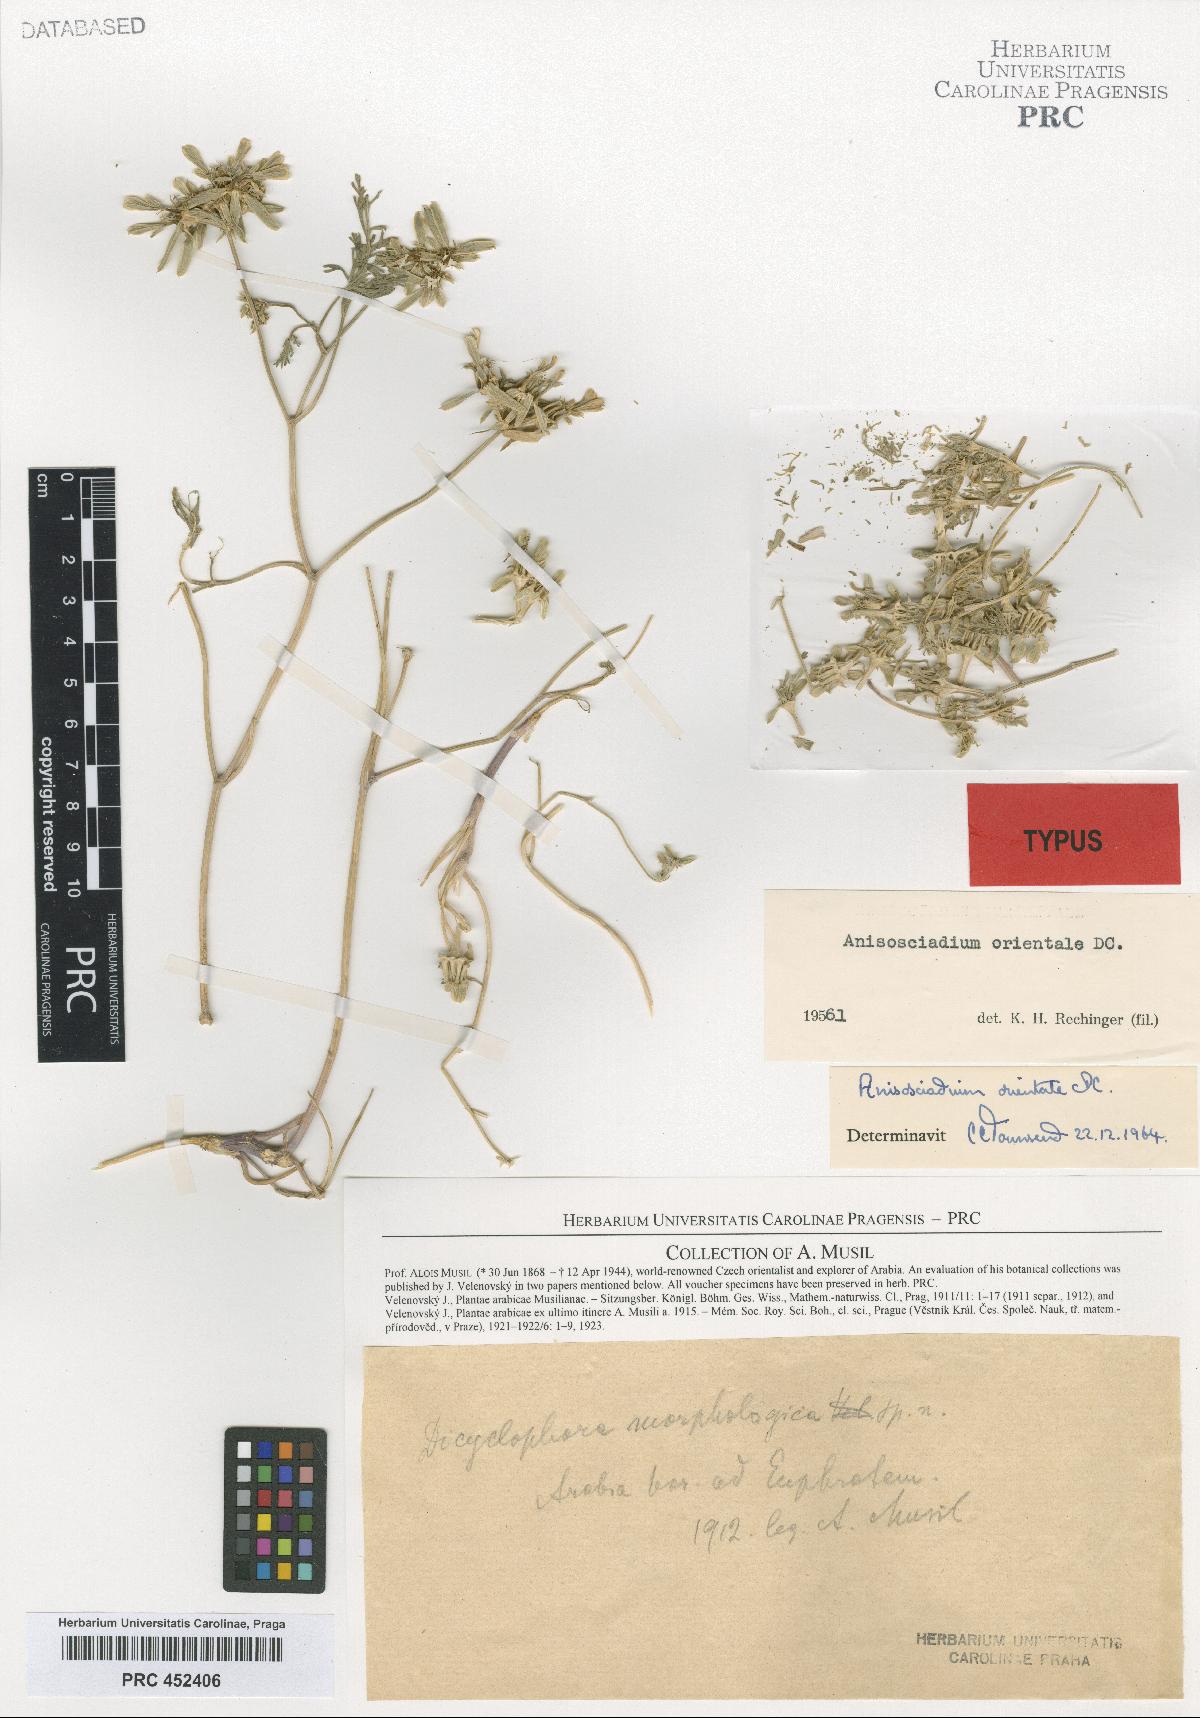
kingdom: Plantae
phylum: Tracheophyta
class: Magnoliopsida
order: Apiales
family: Apiaceae
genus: Anisosciadium
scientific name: Anisosciadium orientale
